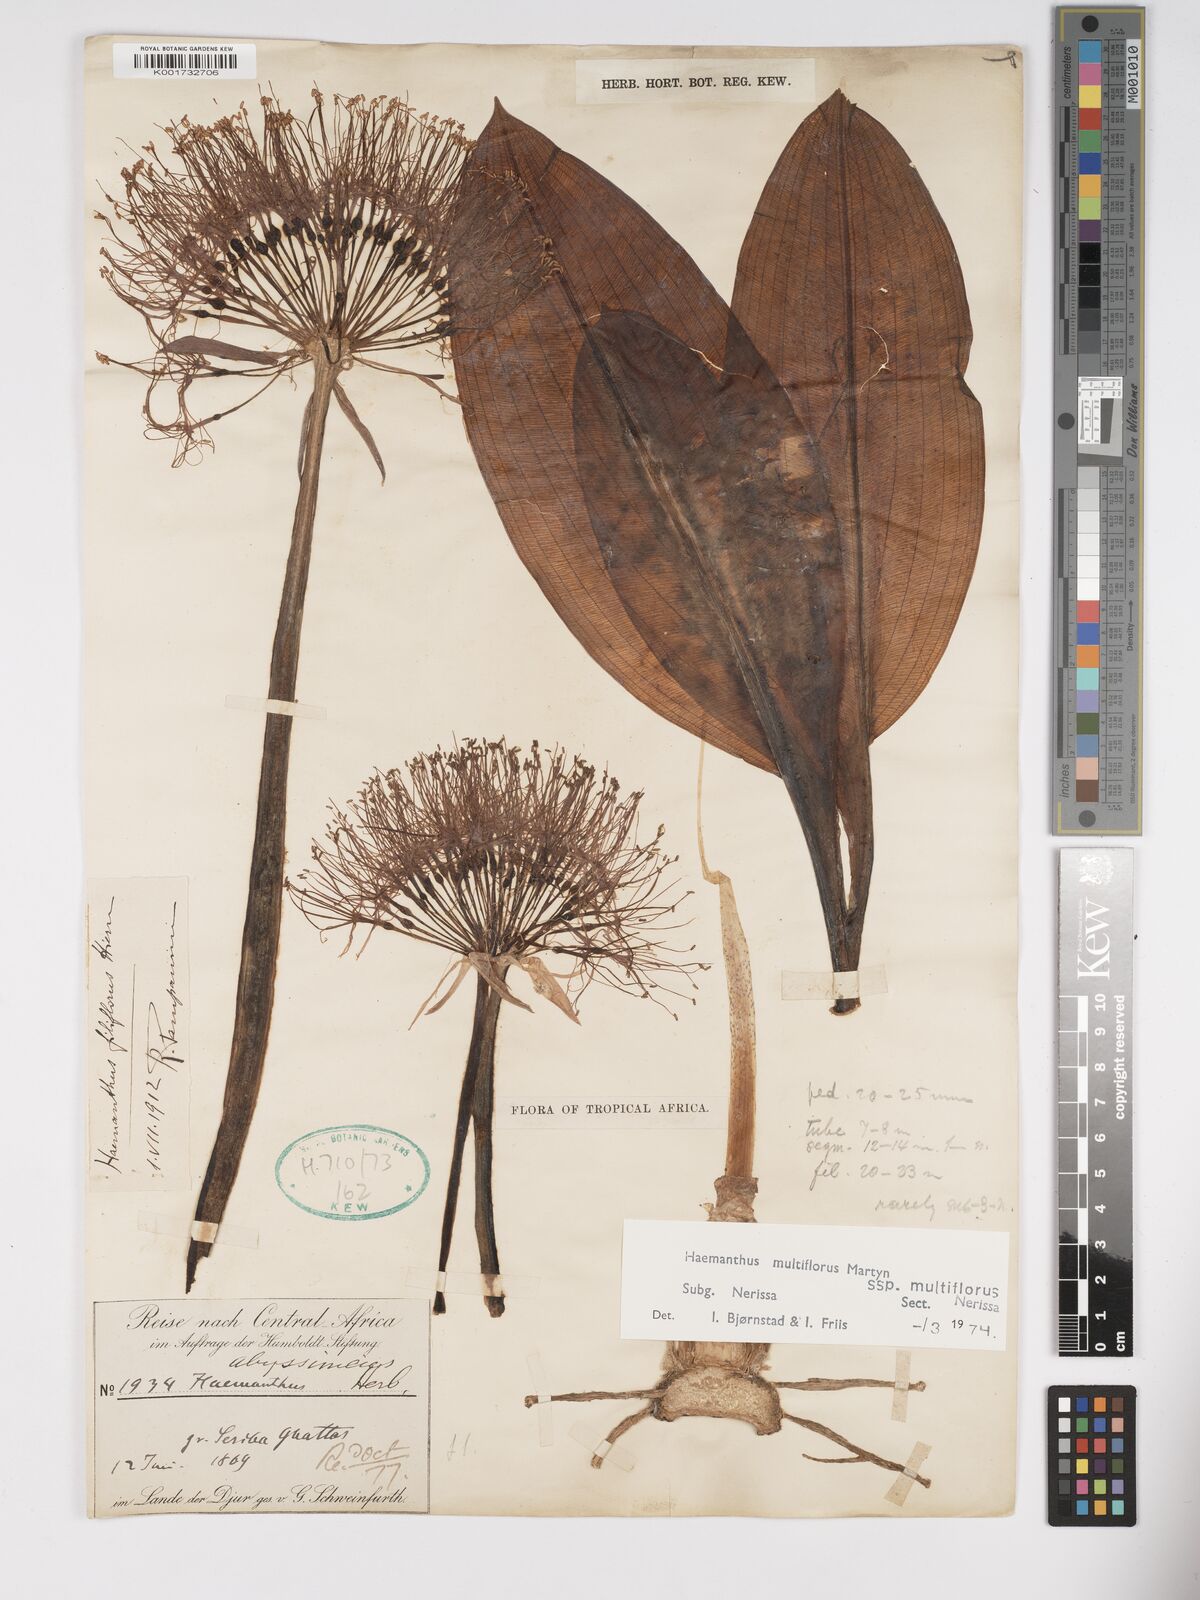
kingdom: Plantae
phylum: Tracheophyta
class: Liliopsida
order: Asparagales
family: Amaryllidaceae
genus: Scadoxus
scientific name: Scadoxus multiflorus
